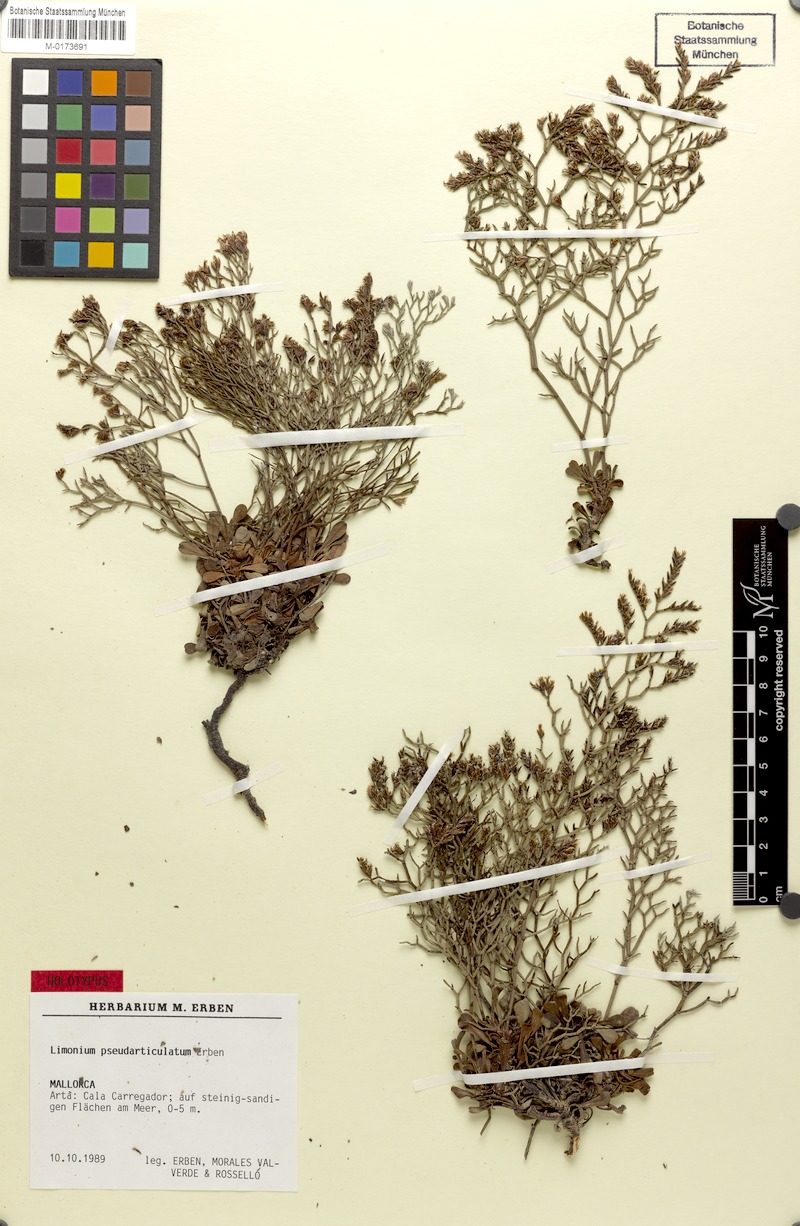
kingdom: Plantae
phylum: Tracheophyta
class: Magnoliopsida
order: Caryophyllales
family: Plumbaginaceae
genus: Limonium
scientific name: Limonium pseudarticulatum
